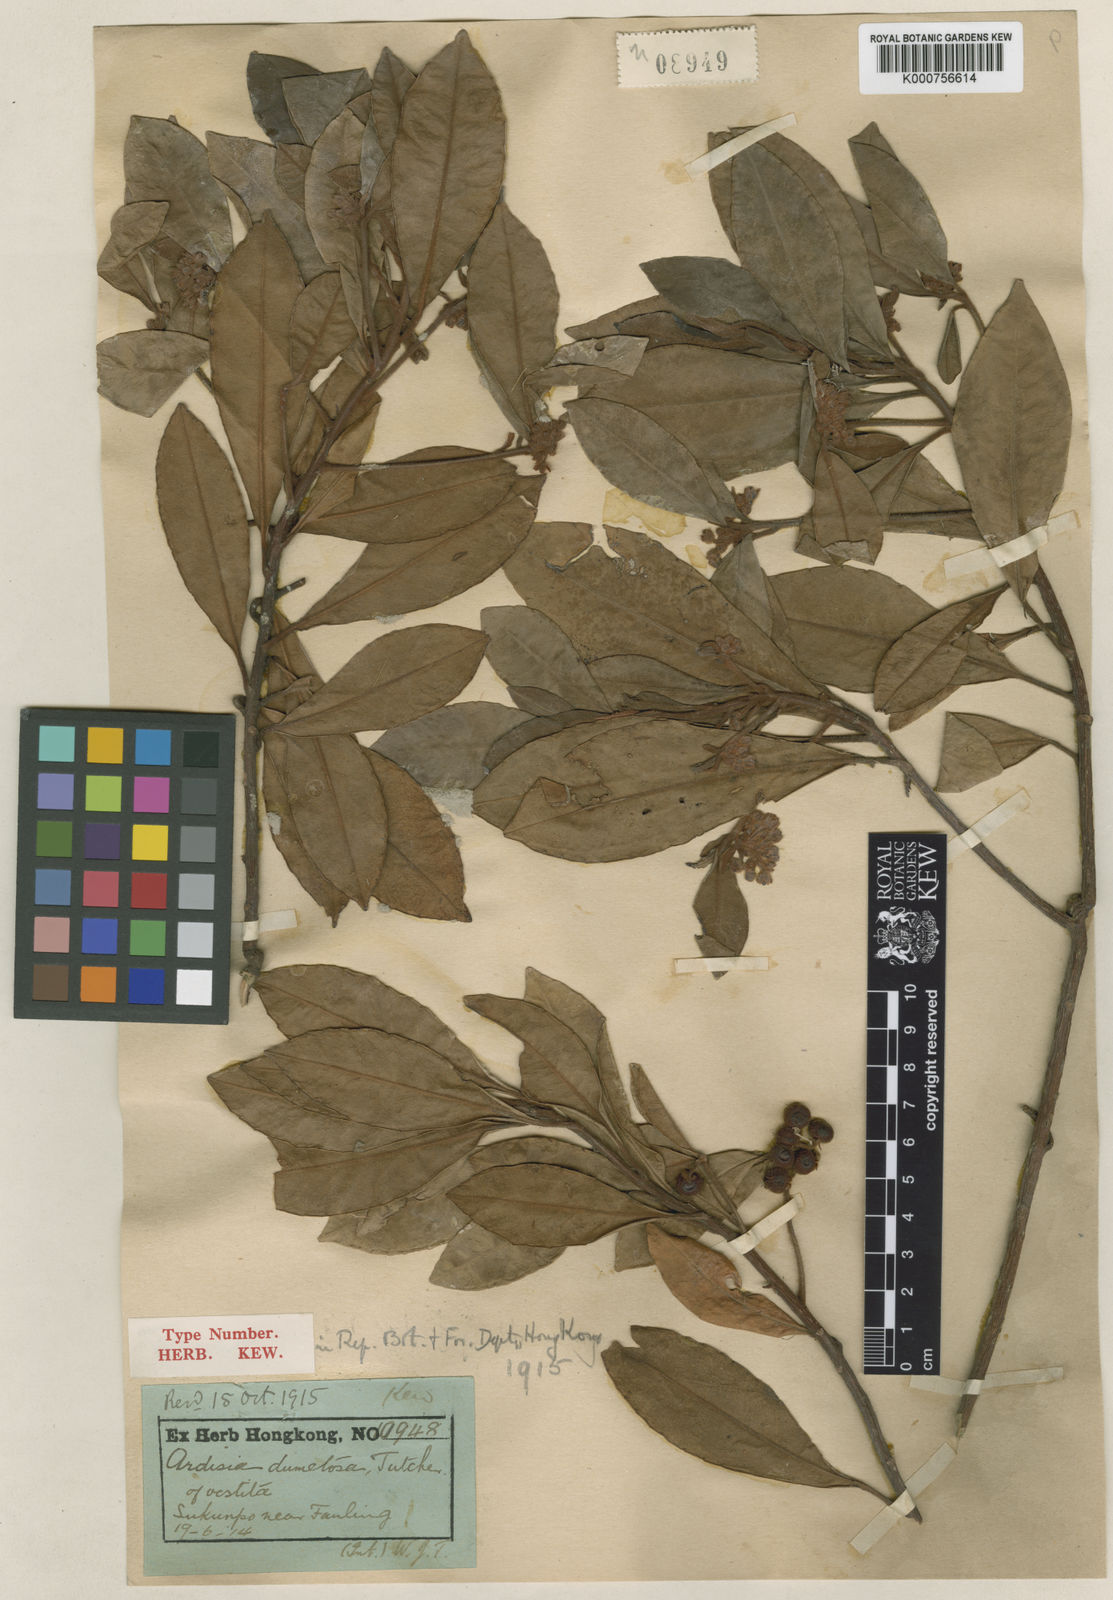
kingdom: Plantae
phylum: Tracheophyta
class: Magnoliopsida
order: Ericales
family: Primulaceae
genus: Ardisia
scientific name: Ardisia villosa
